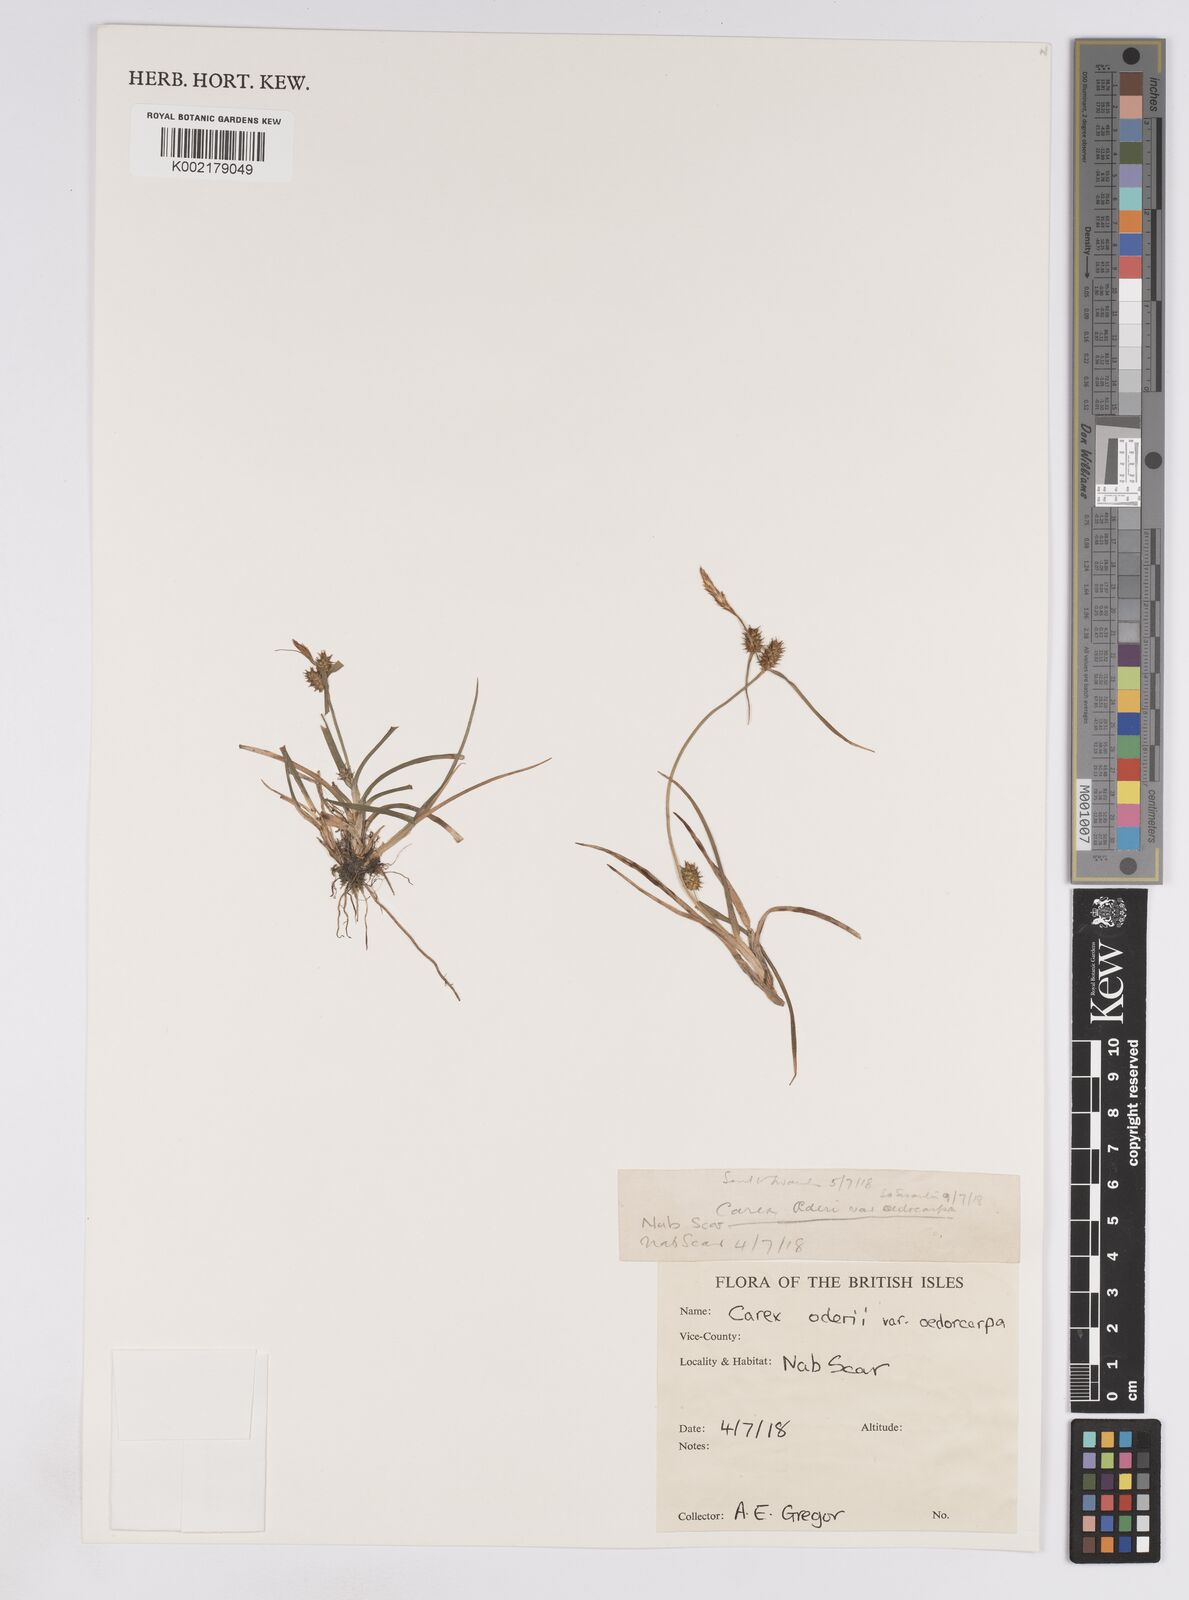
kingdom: Plantae
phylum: Tracheophyta
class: Liliopsida
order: Poales
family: Cyperaceae
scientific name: Cyperaceae
